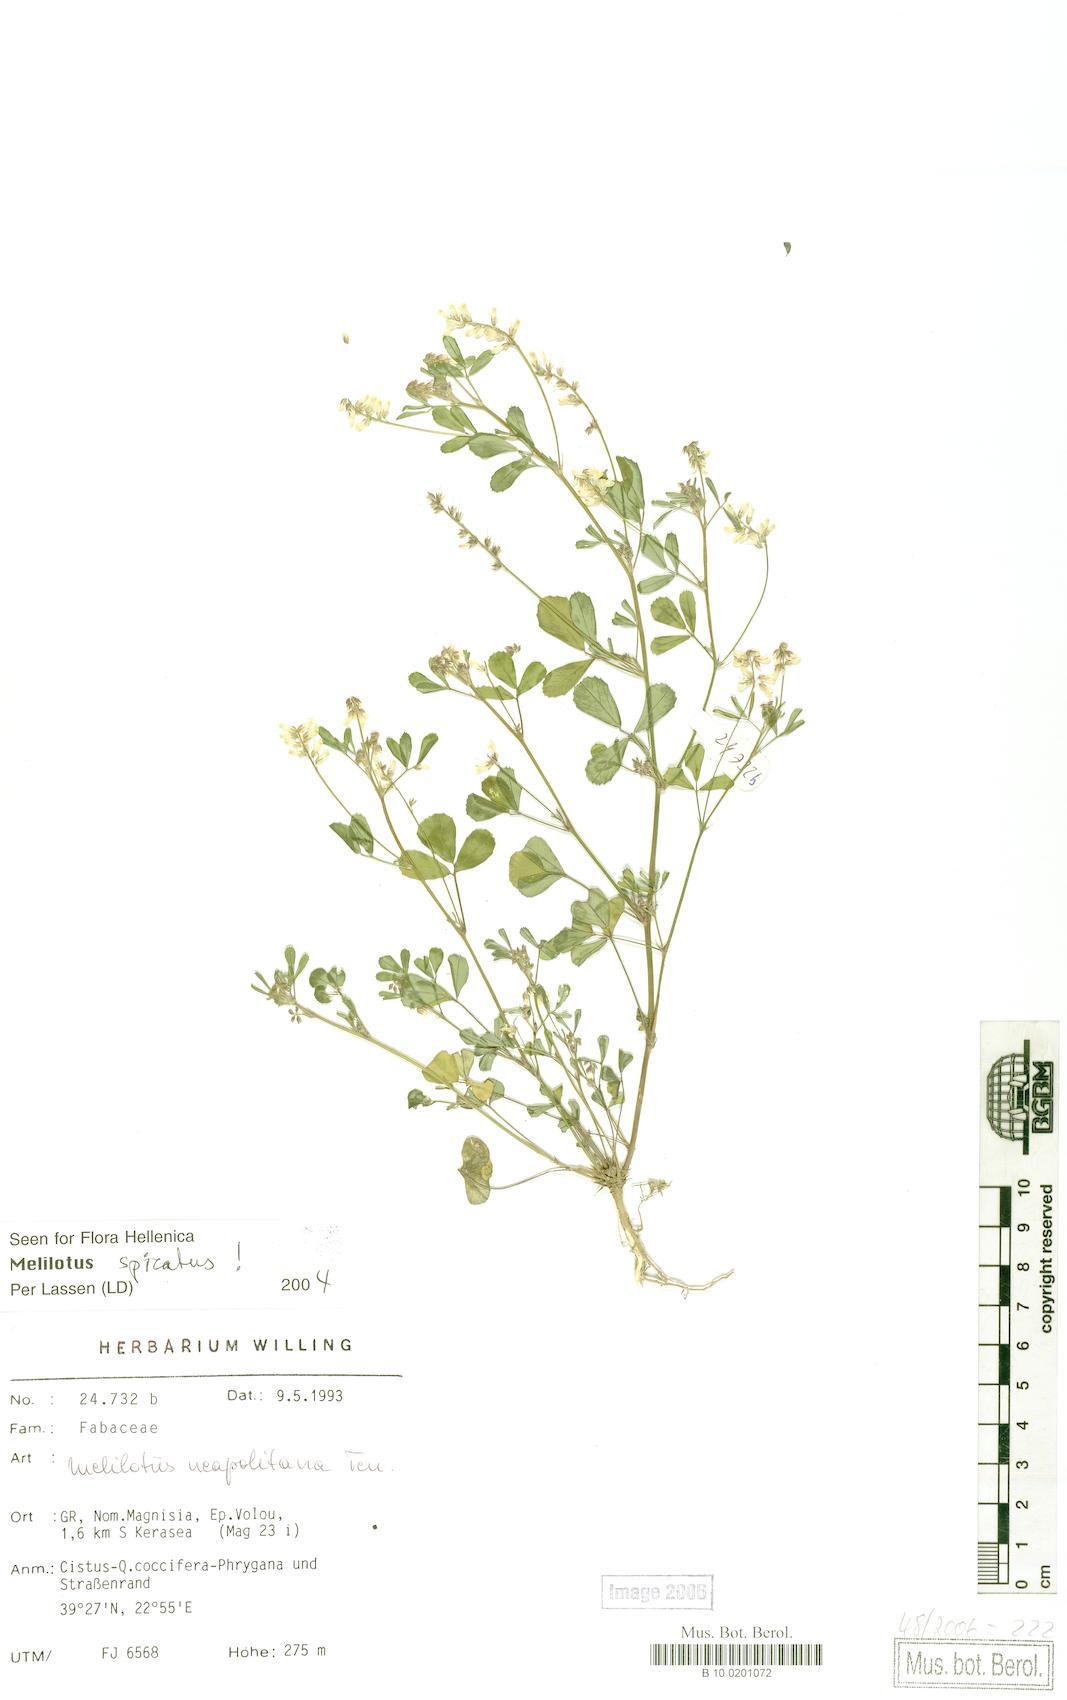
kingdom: Plantae
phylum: Tracheophyta
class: Magnoliopsida
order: Fabales
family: Fabaceae
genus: Melilotus
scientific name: Melilotus neapolitanus
